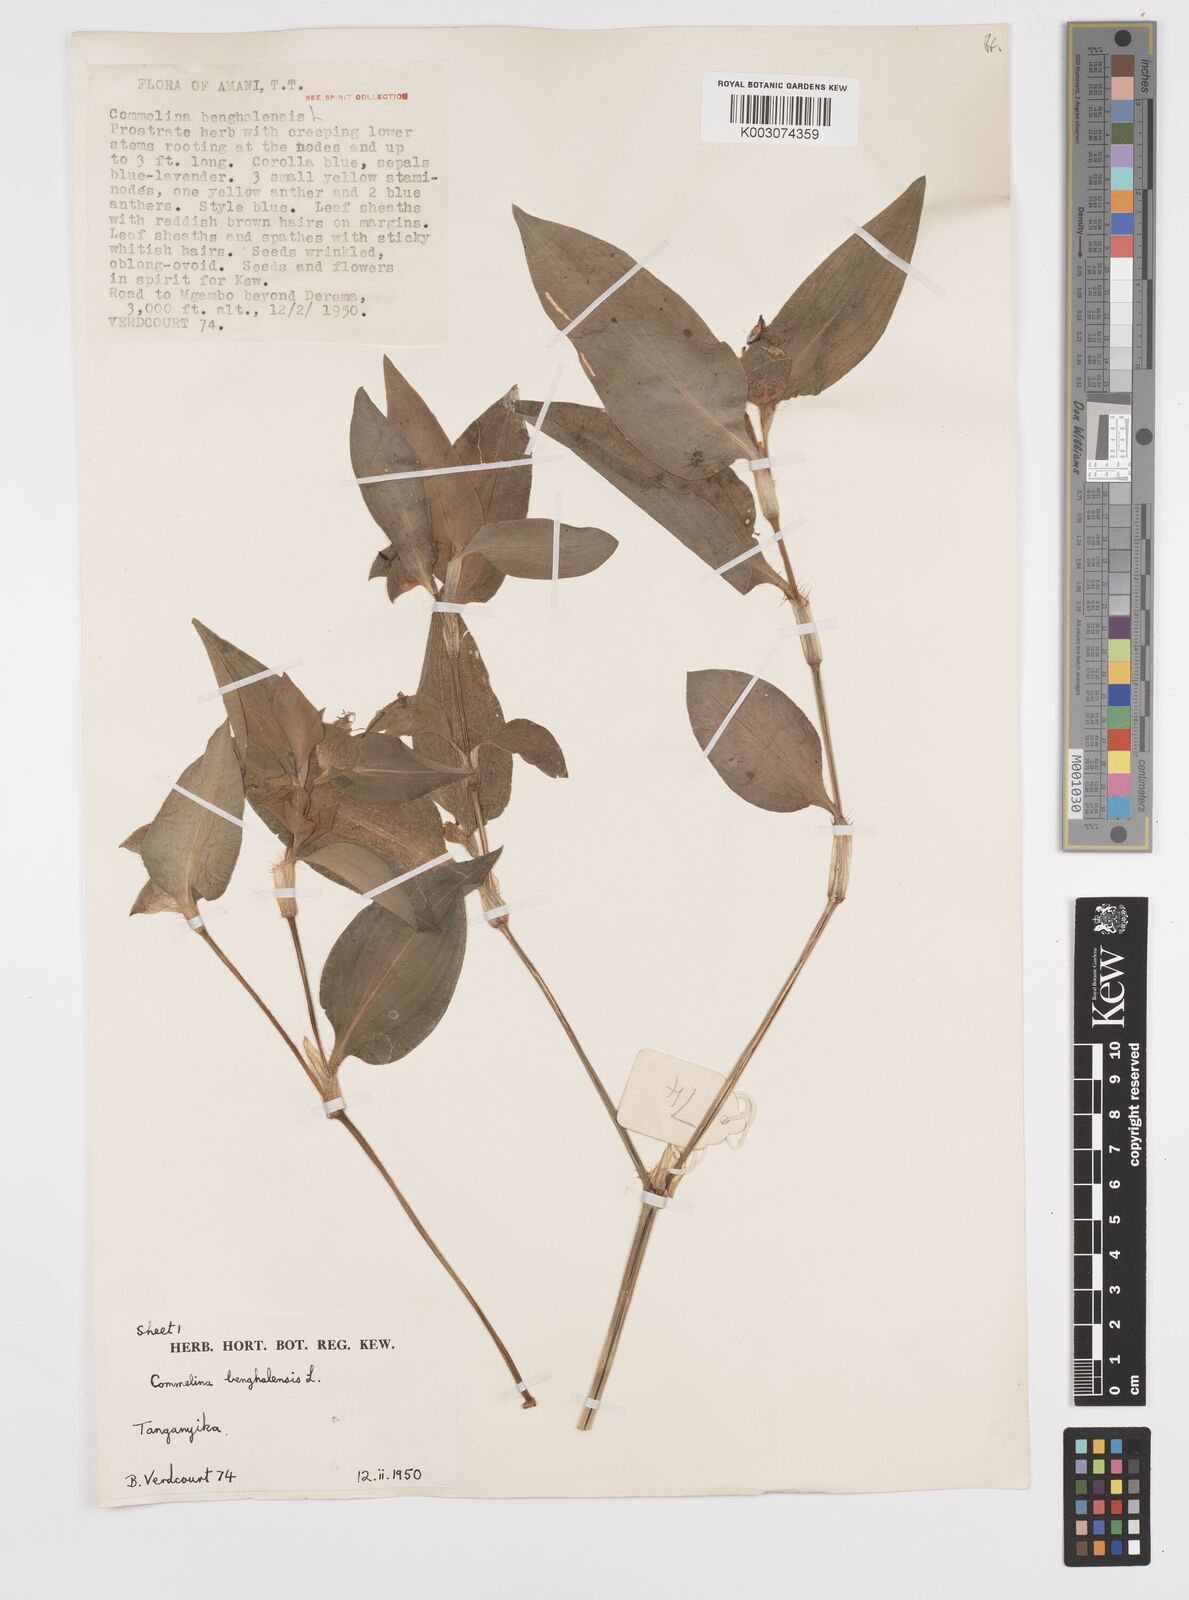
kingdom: Plantae
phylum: Tracheophyta
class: Liliopsida
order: Commelinales
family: Commelinaceae
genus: Commelina
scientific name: Commelina benghalensis
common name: Jio
